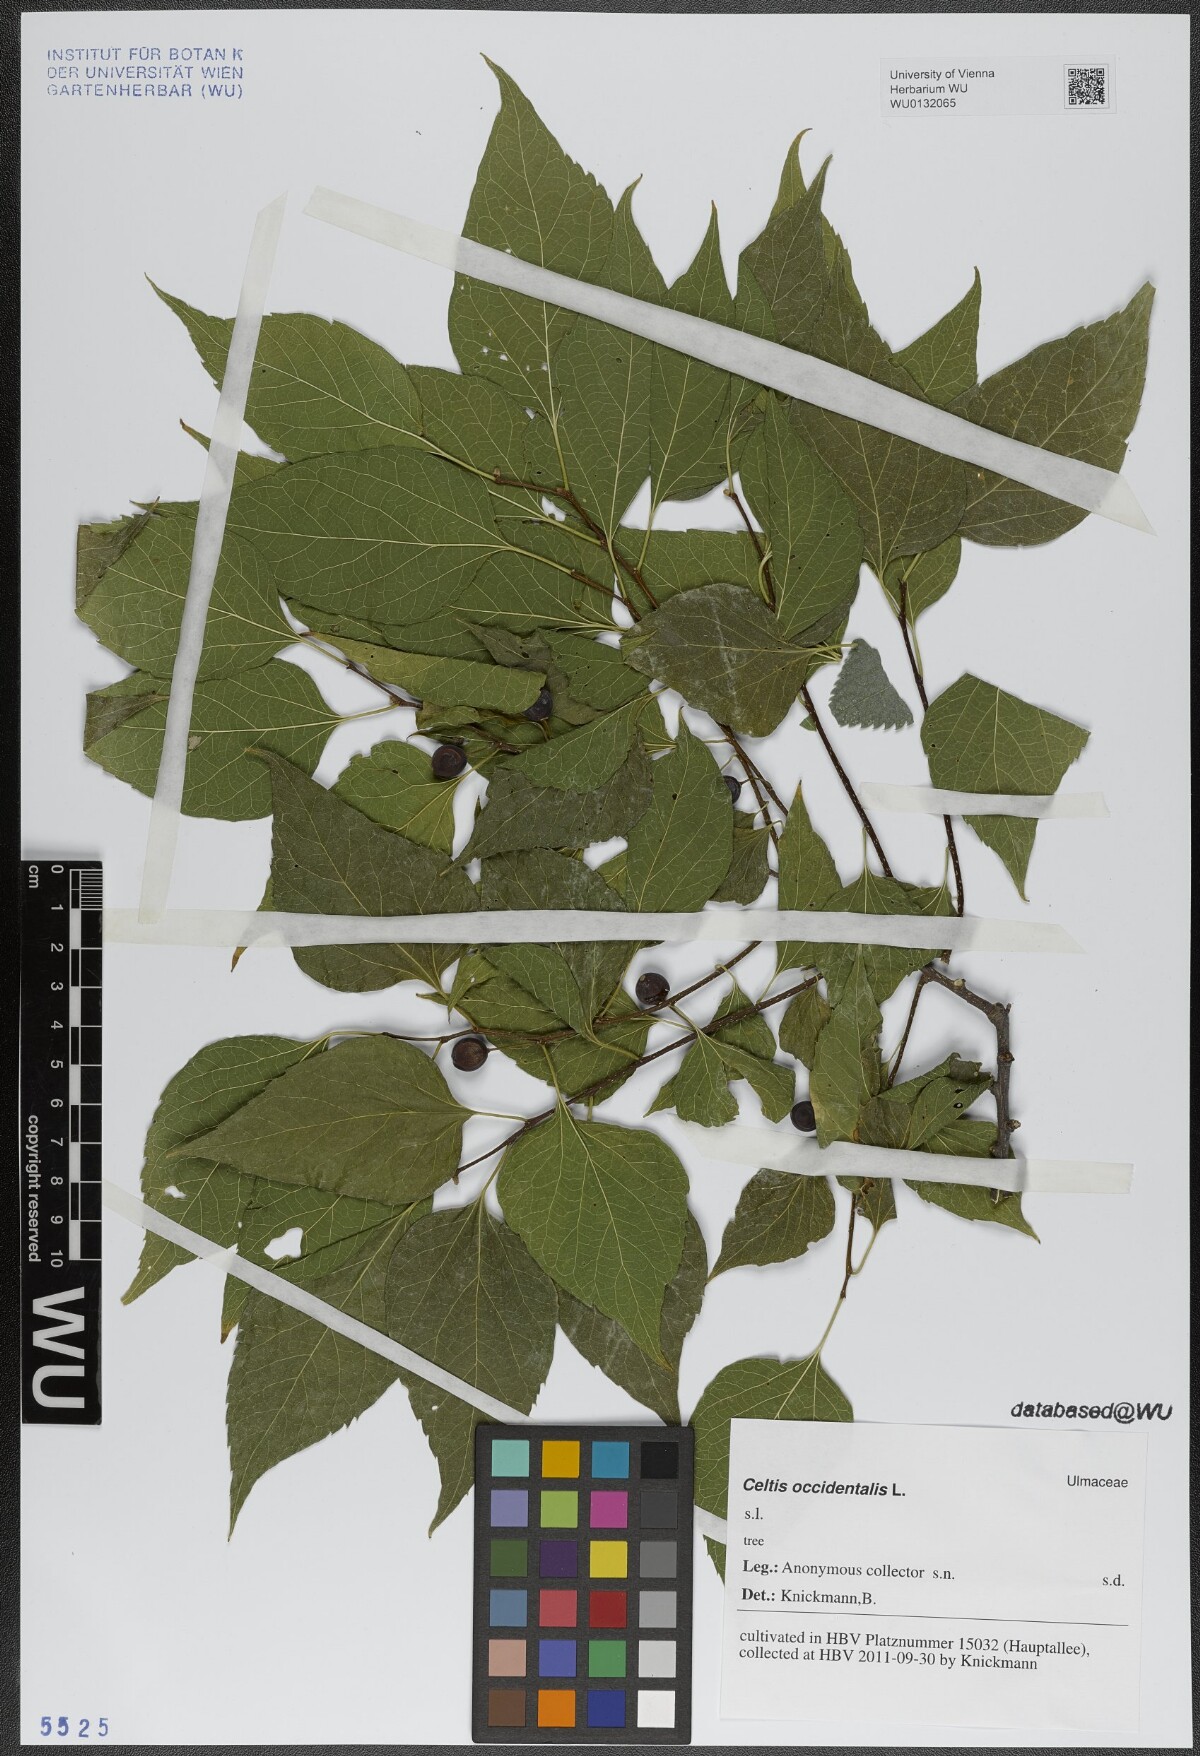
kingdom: Plantae
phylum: Tracheophyta
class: Magnoliopsida
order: Rosales
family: Cannabaceae
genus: Celtis
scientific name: Celtis occidentalis
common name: Common hackberry
